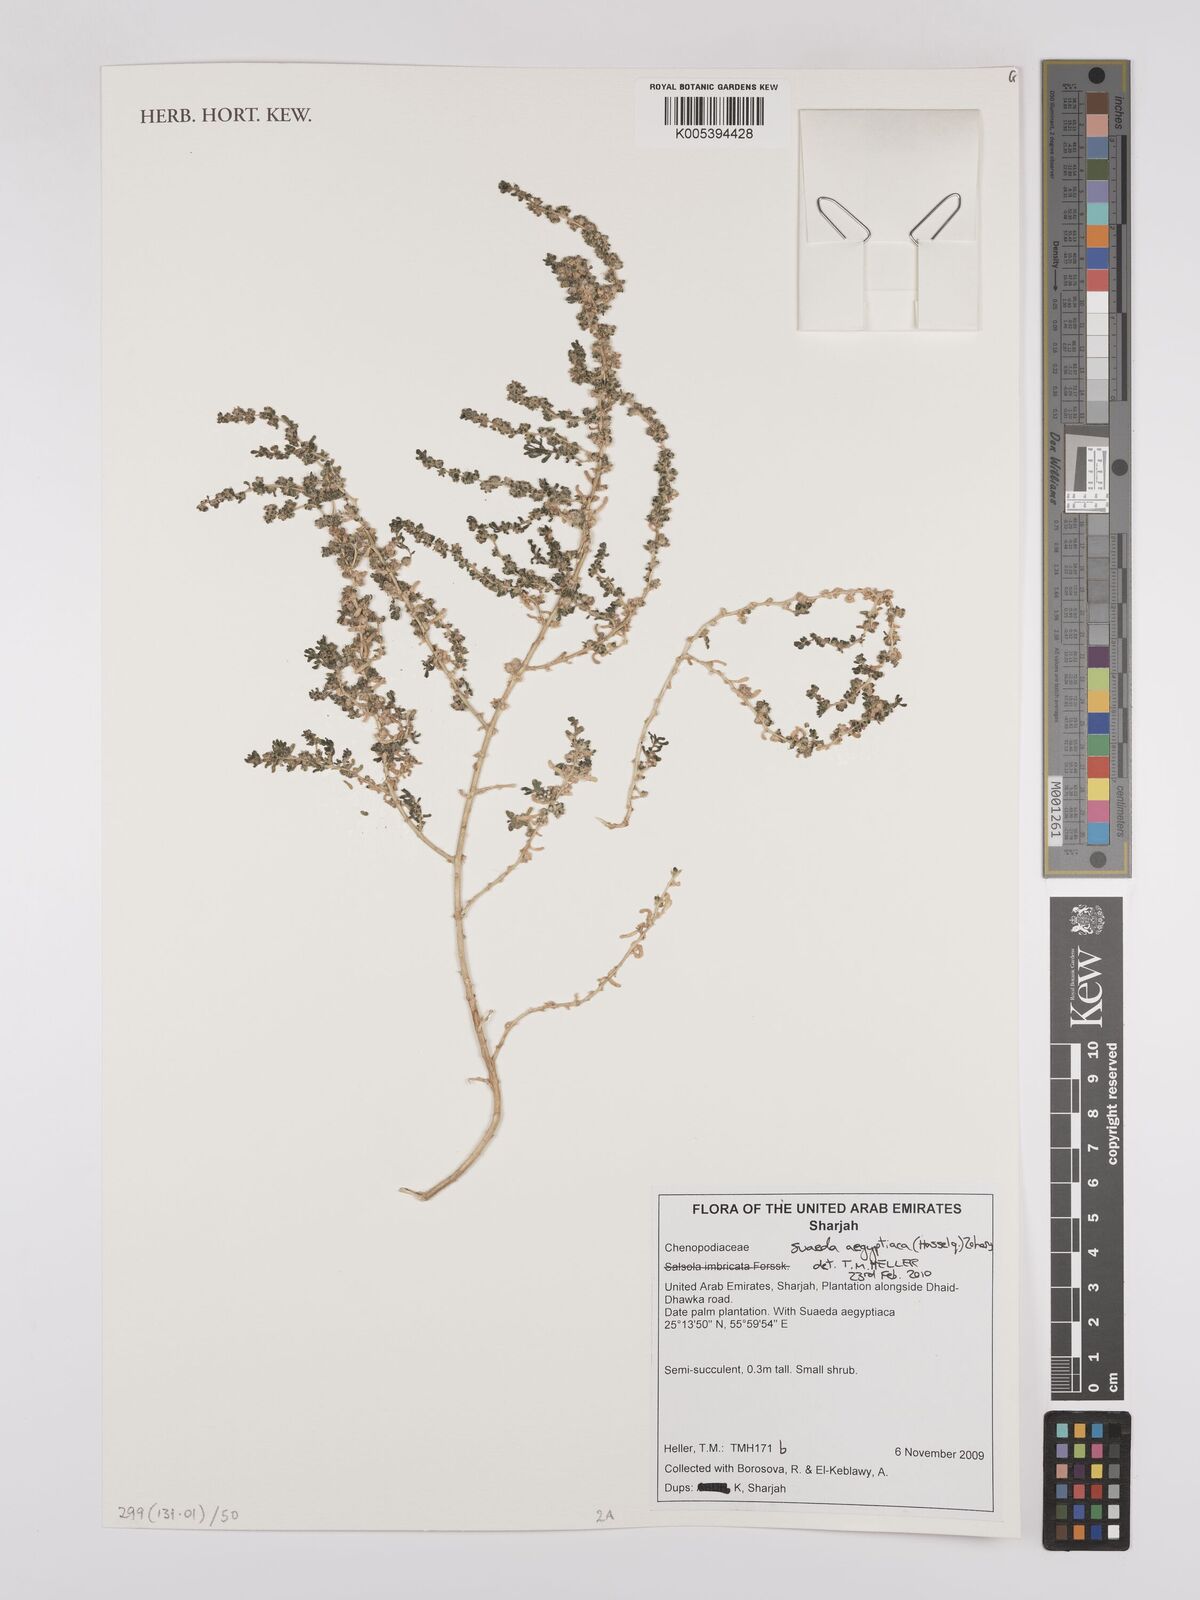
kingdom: Plantae
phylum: Tracheophyta
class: Magnoliopsida
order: Caryophyllales
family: Amaranthaceae
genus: Suaeda
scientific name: Suaeda aegyptiaca
